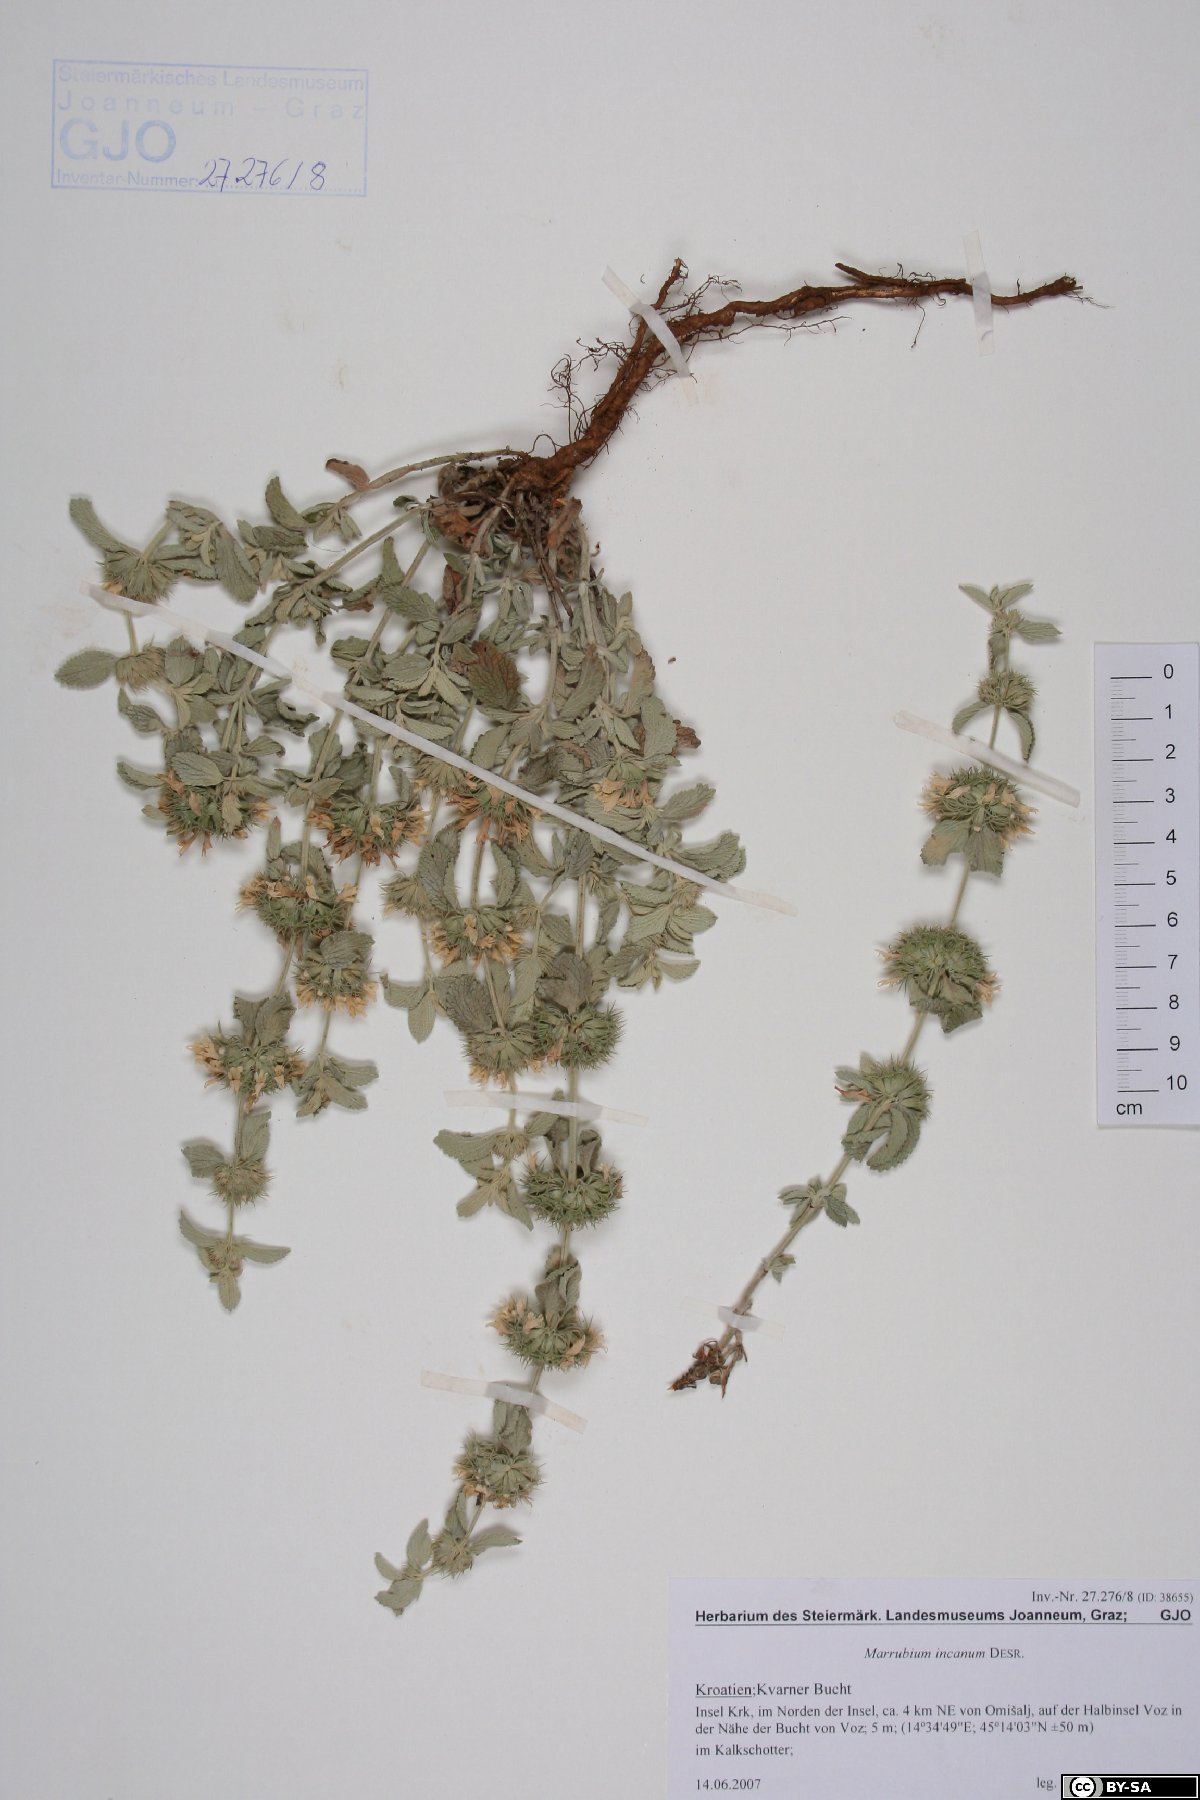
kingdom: Plantae
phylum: Tracheophyta
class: Magnoliopsida
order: Lamiales
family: Lamiaceae
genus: Marrubium
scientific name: Marrubium incanum
